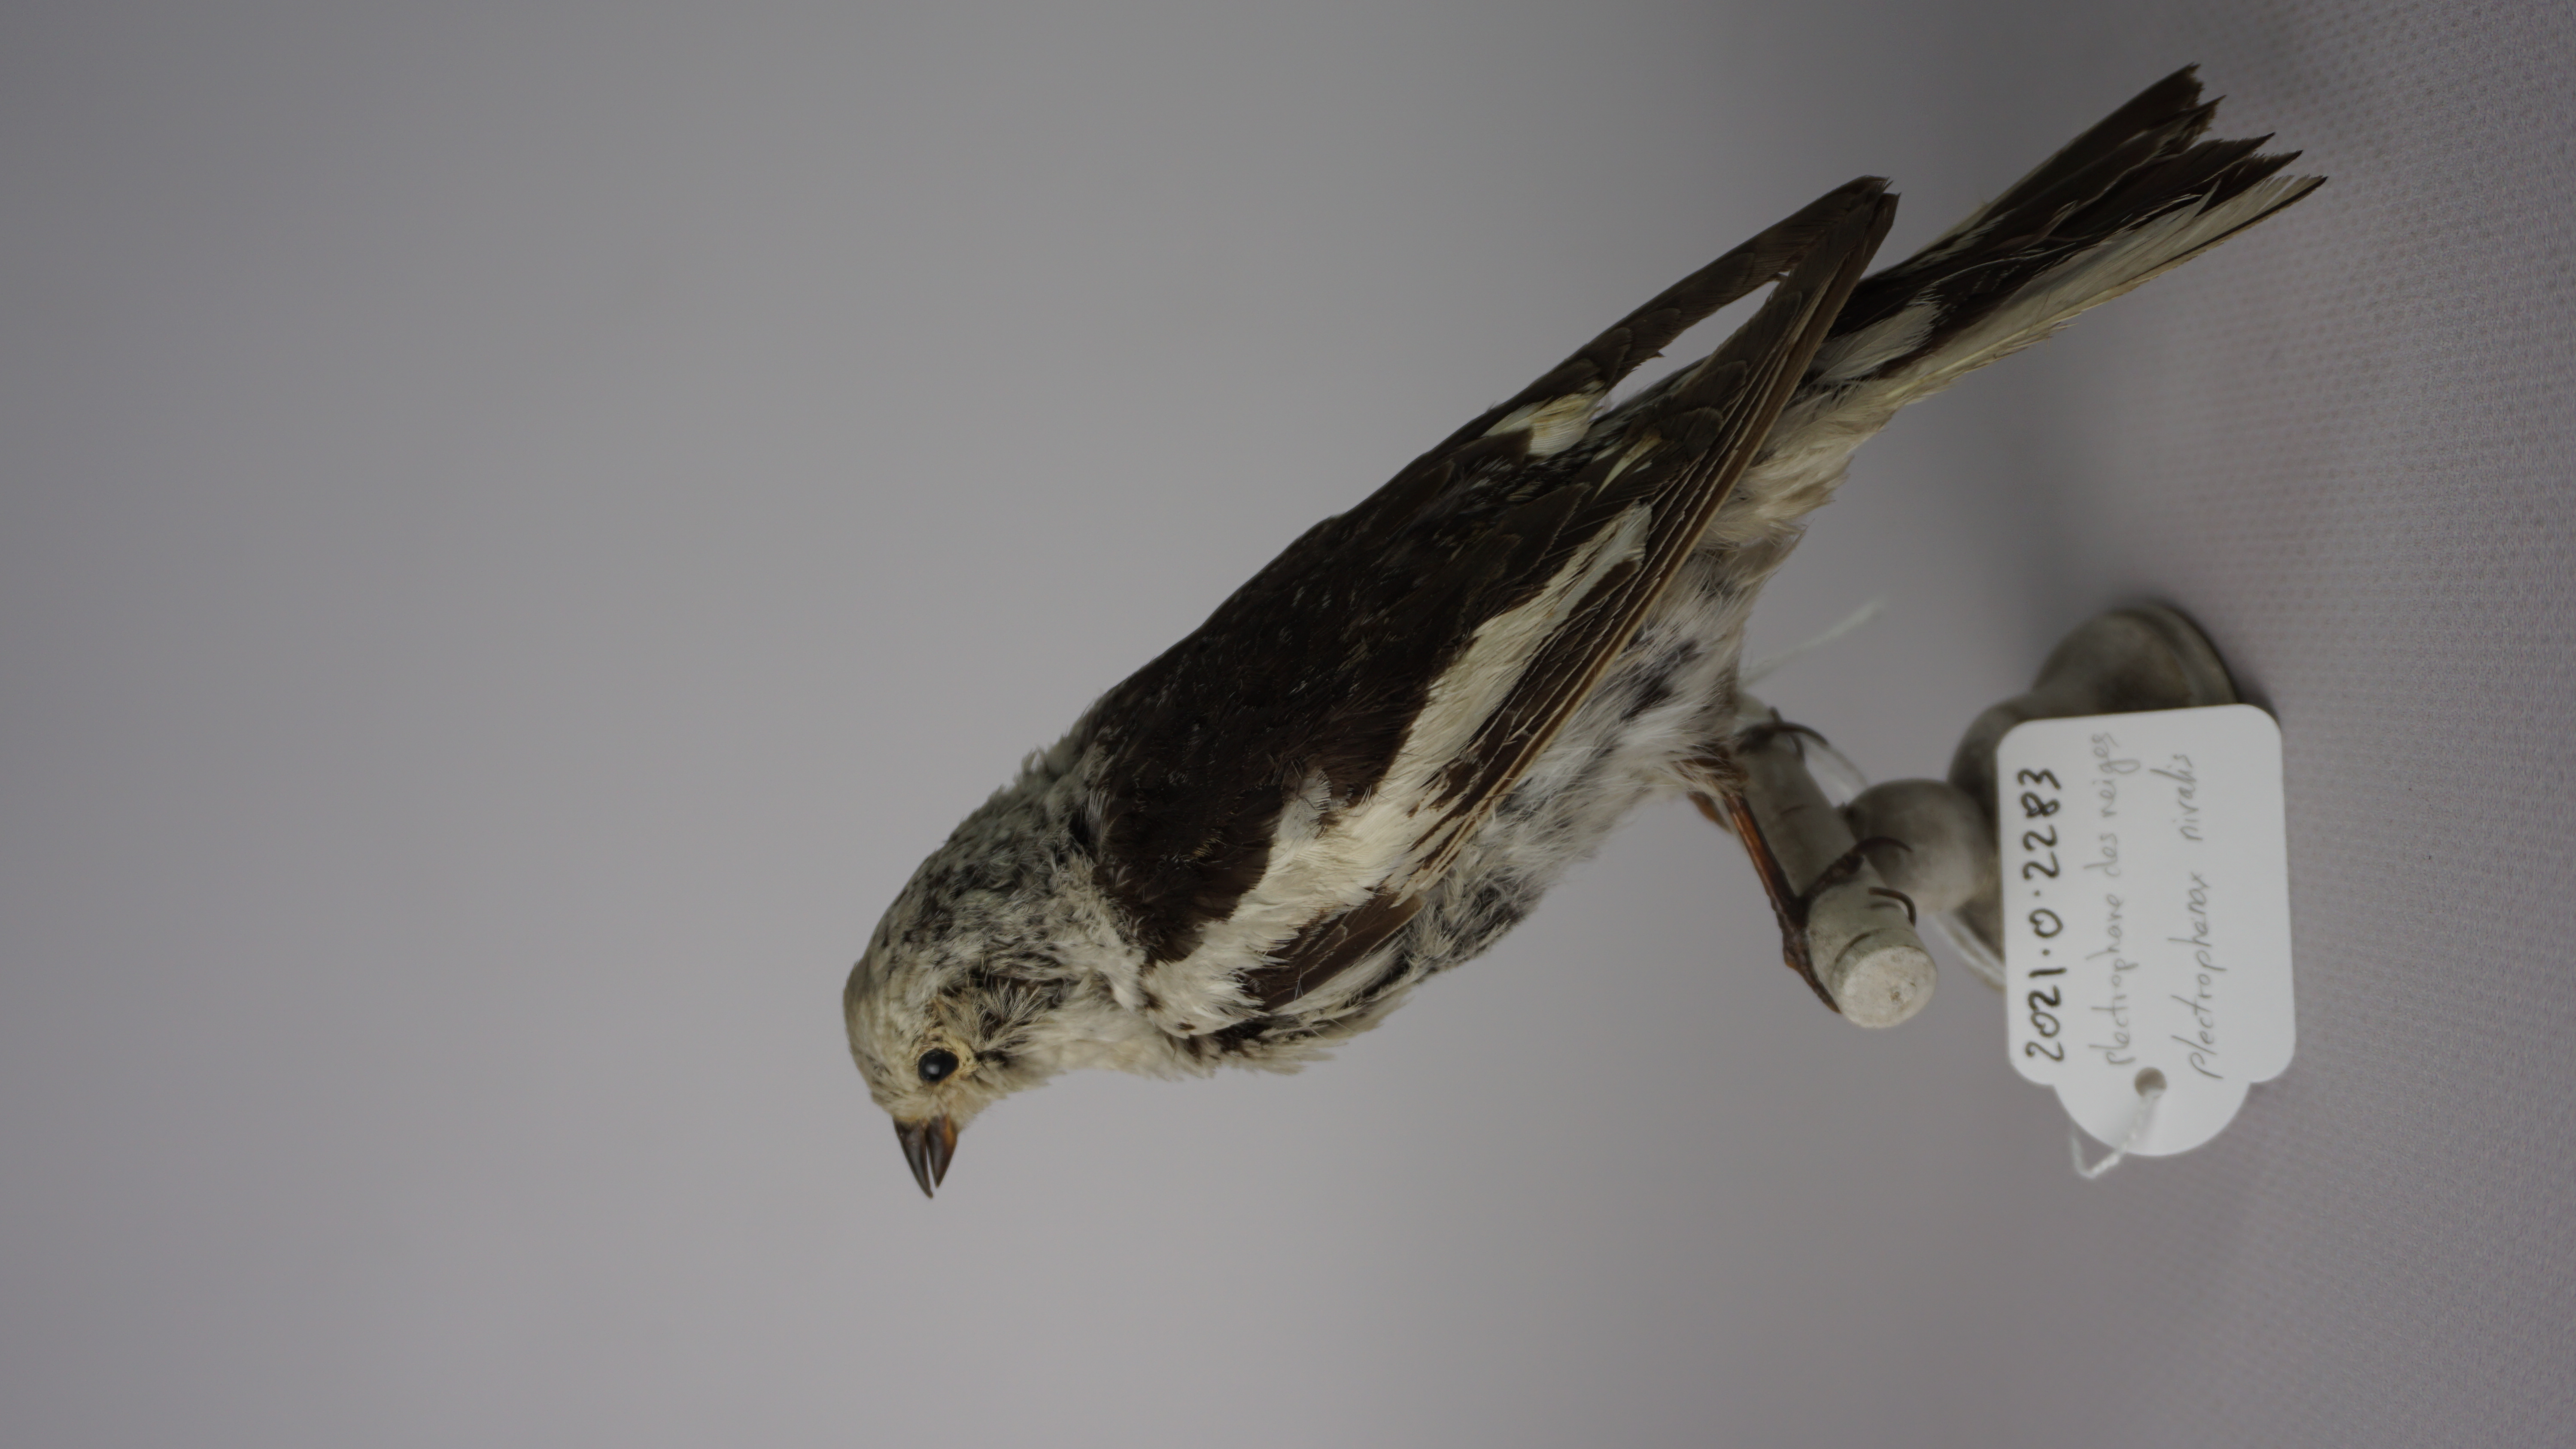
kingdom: Animalia
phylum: Chordata
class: Aves
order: Passeriformes
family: Calcariidae
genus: Plectrophenax
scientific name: Plectrophenax nivalis
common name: Snow bunting
